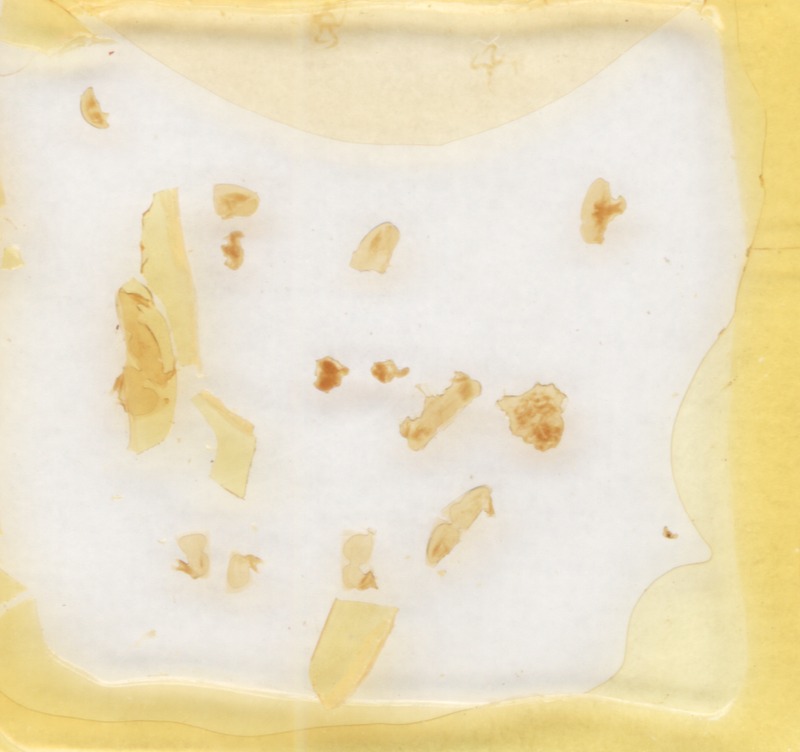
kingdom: Animalia
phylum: Arthropoda
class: Diplopoda
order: Glomerida
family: Glomeridae
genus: Glomeris
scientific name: Glomeris transalpina
